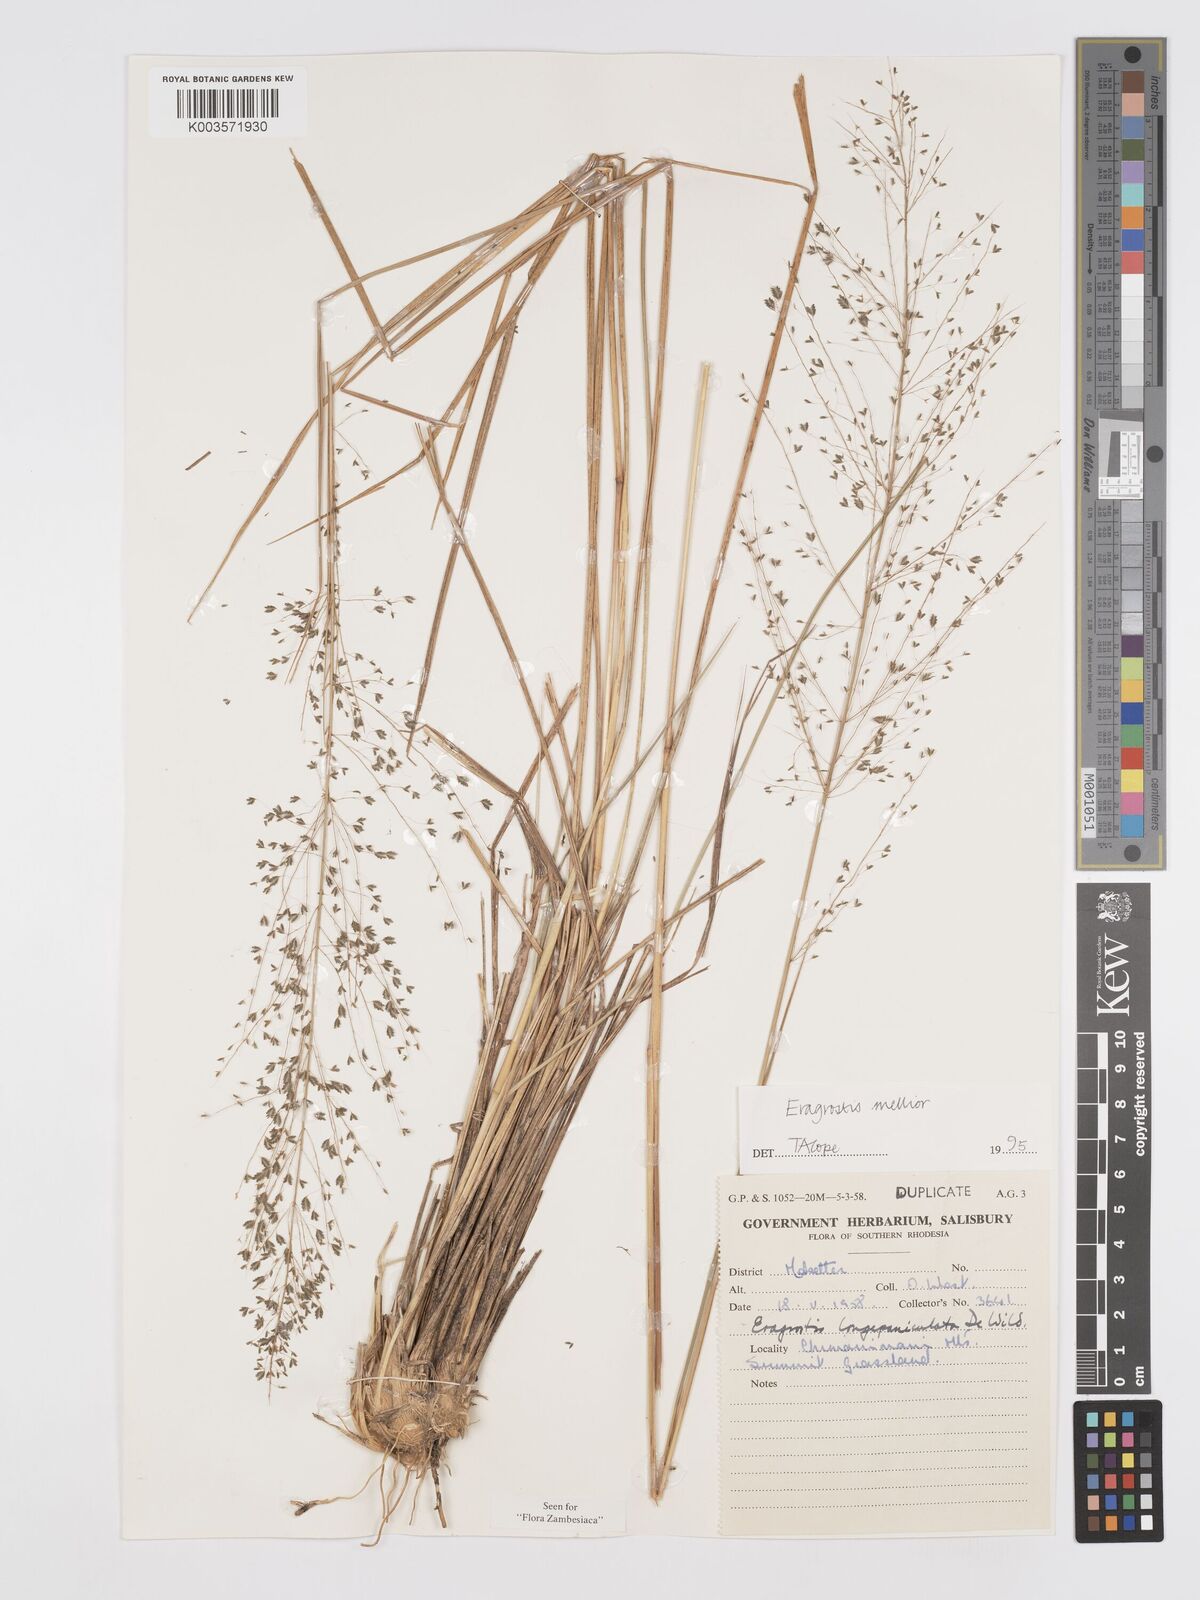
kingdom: Plantae
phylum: Tracheophyta
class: Liliopsida
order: Poales
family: Poaceae
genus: Eragrostis
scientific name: Eragrostis mollior
